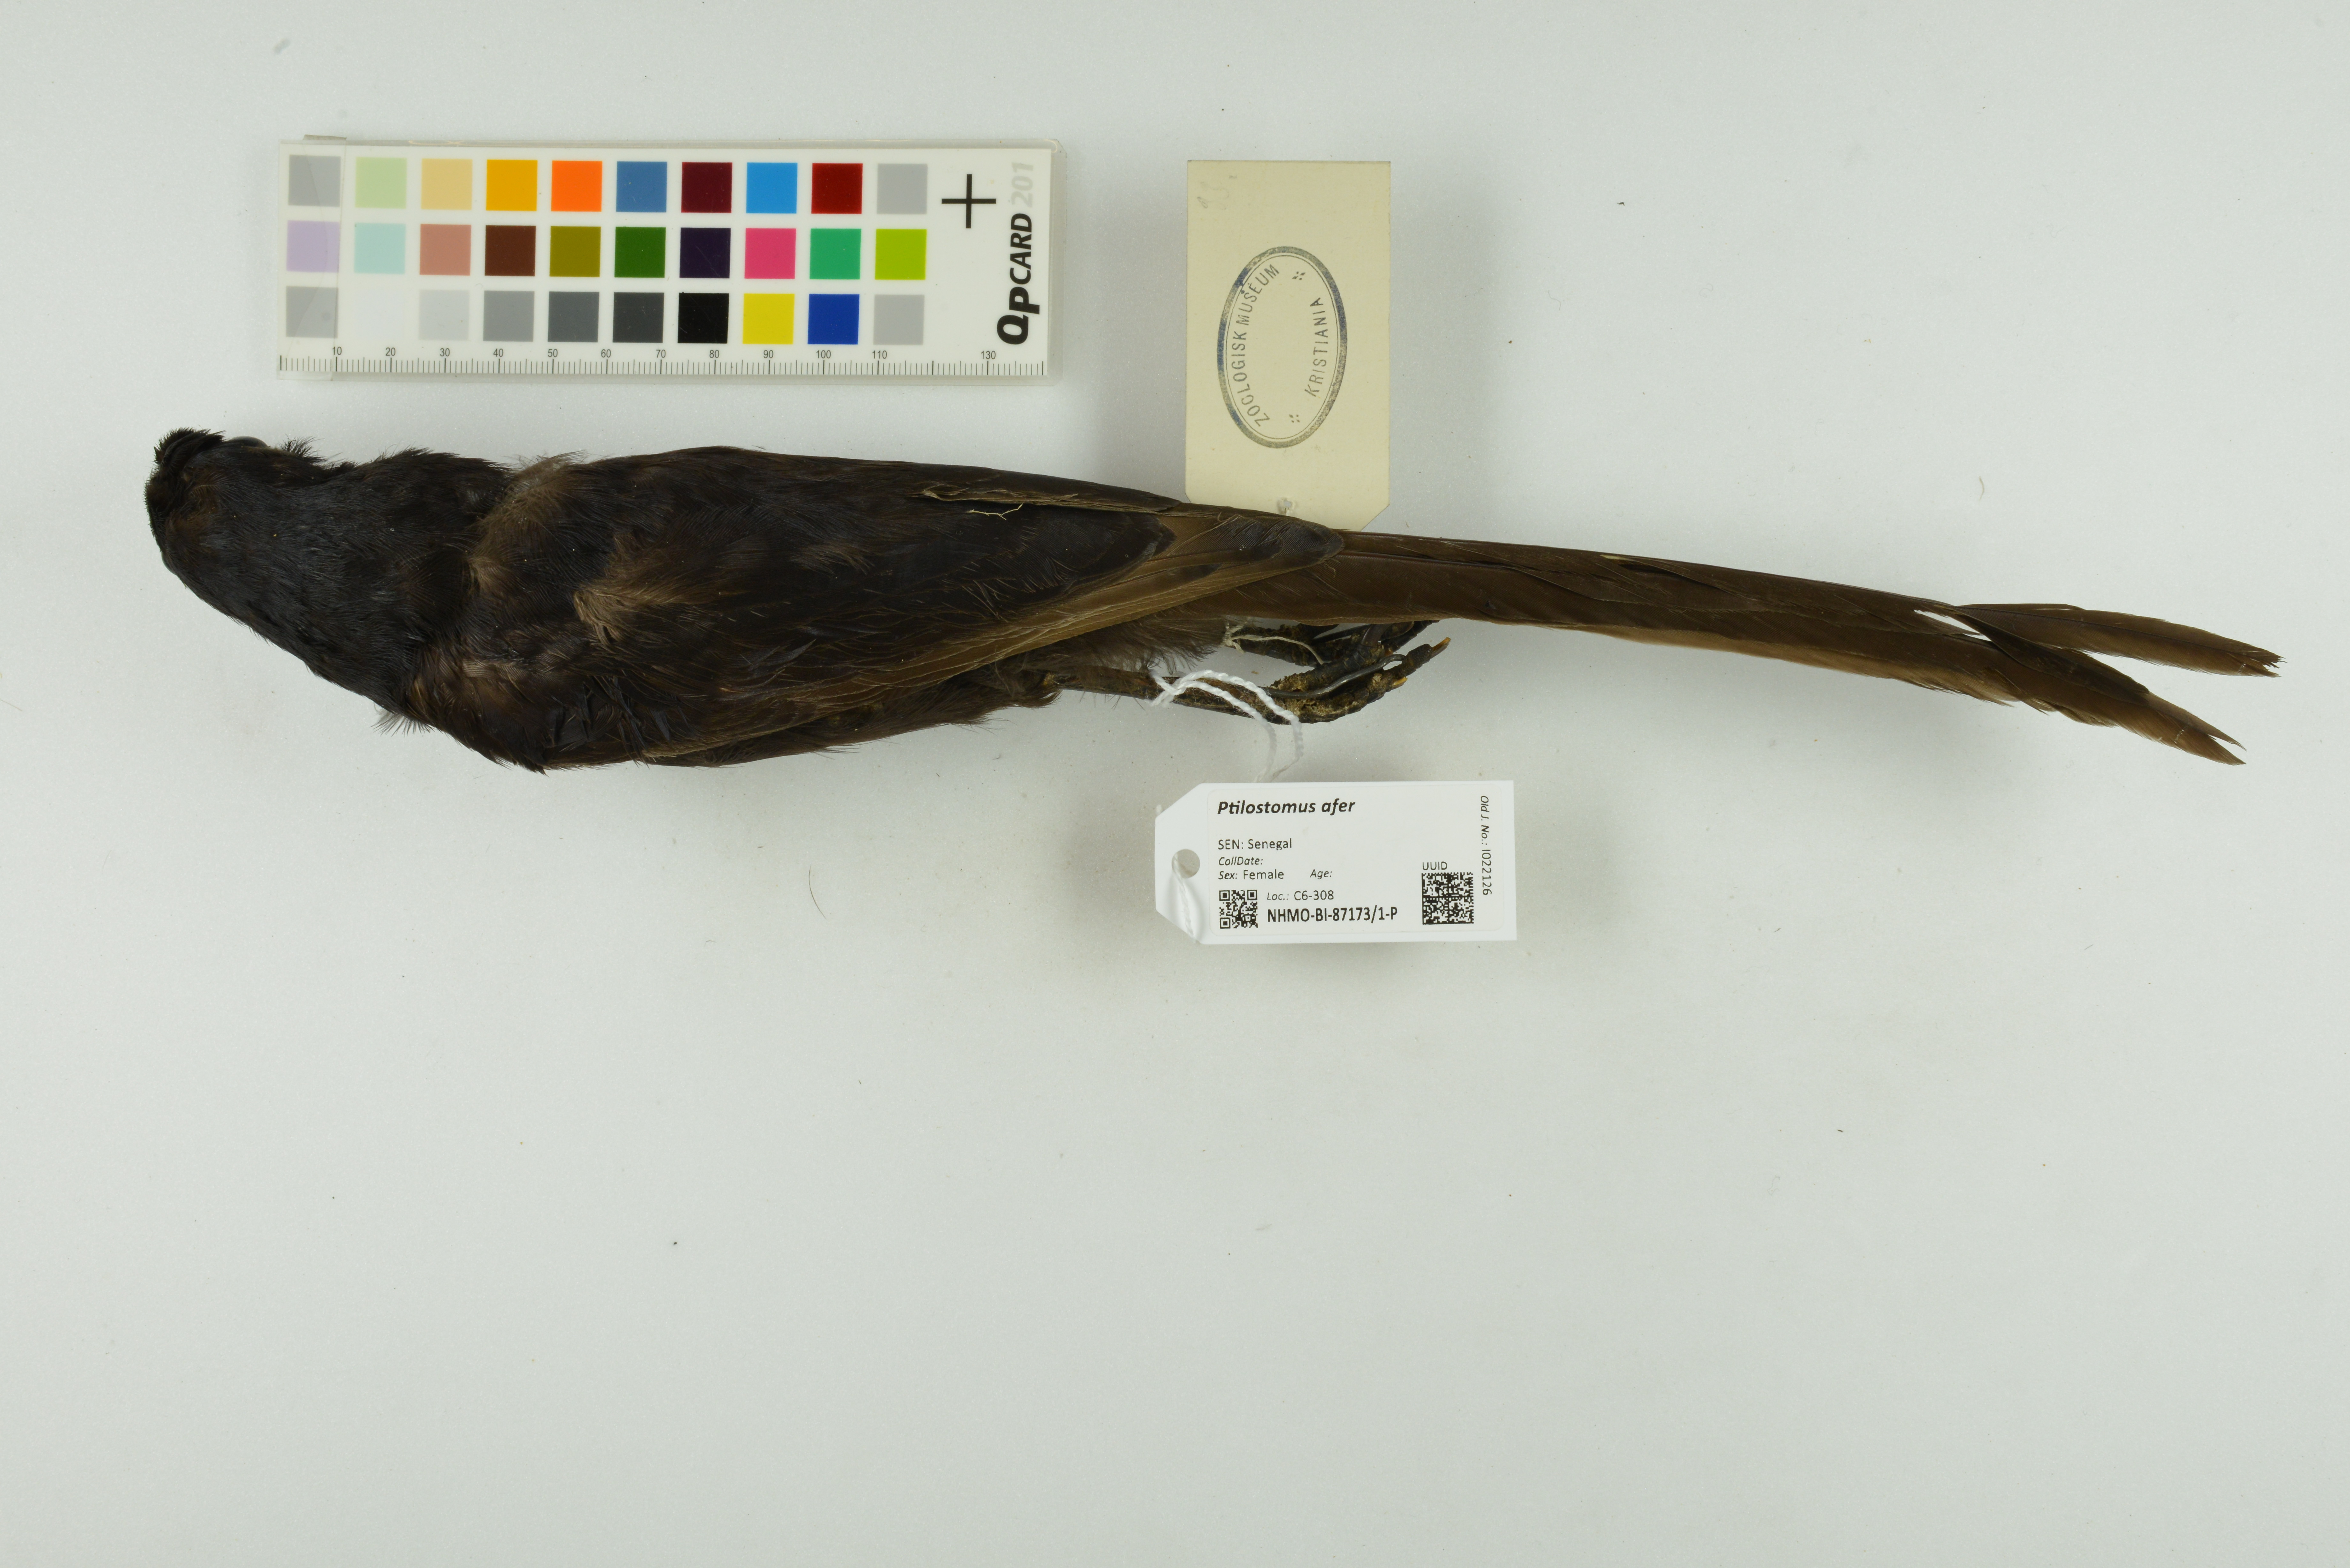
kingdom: Animalia
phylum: Chordata
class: Aves
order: Passeriformes
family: Corvidae
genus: Ptilostomus
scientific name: Ptilostomus afer
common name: Piapiac
